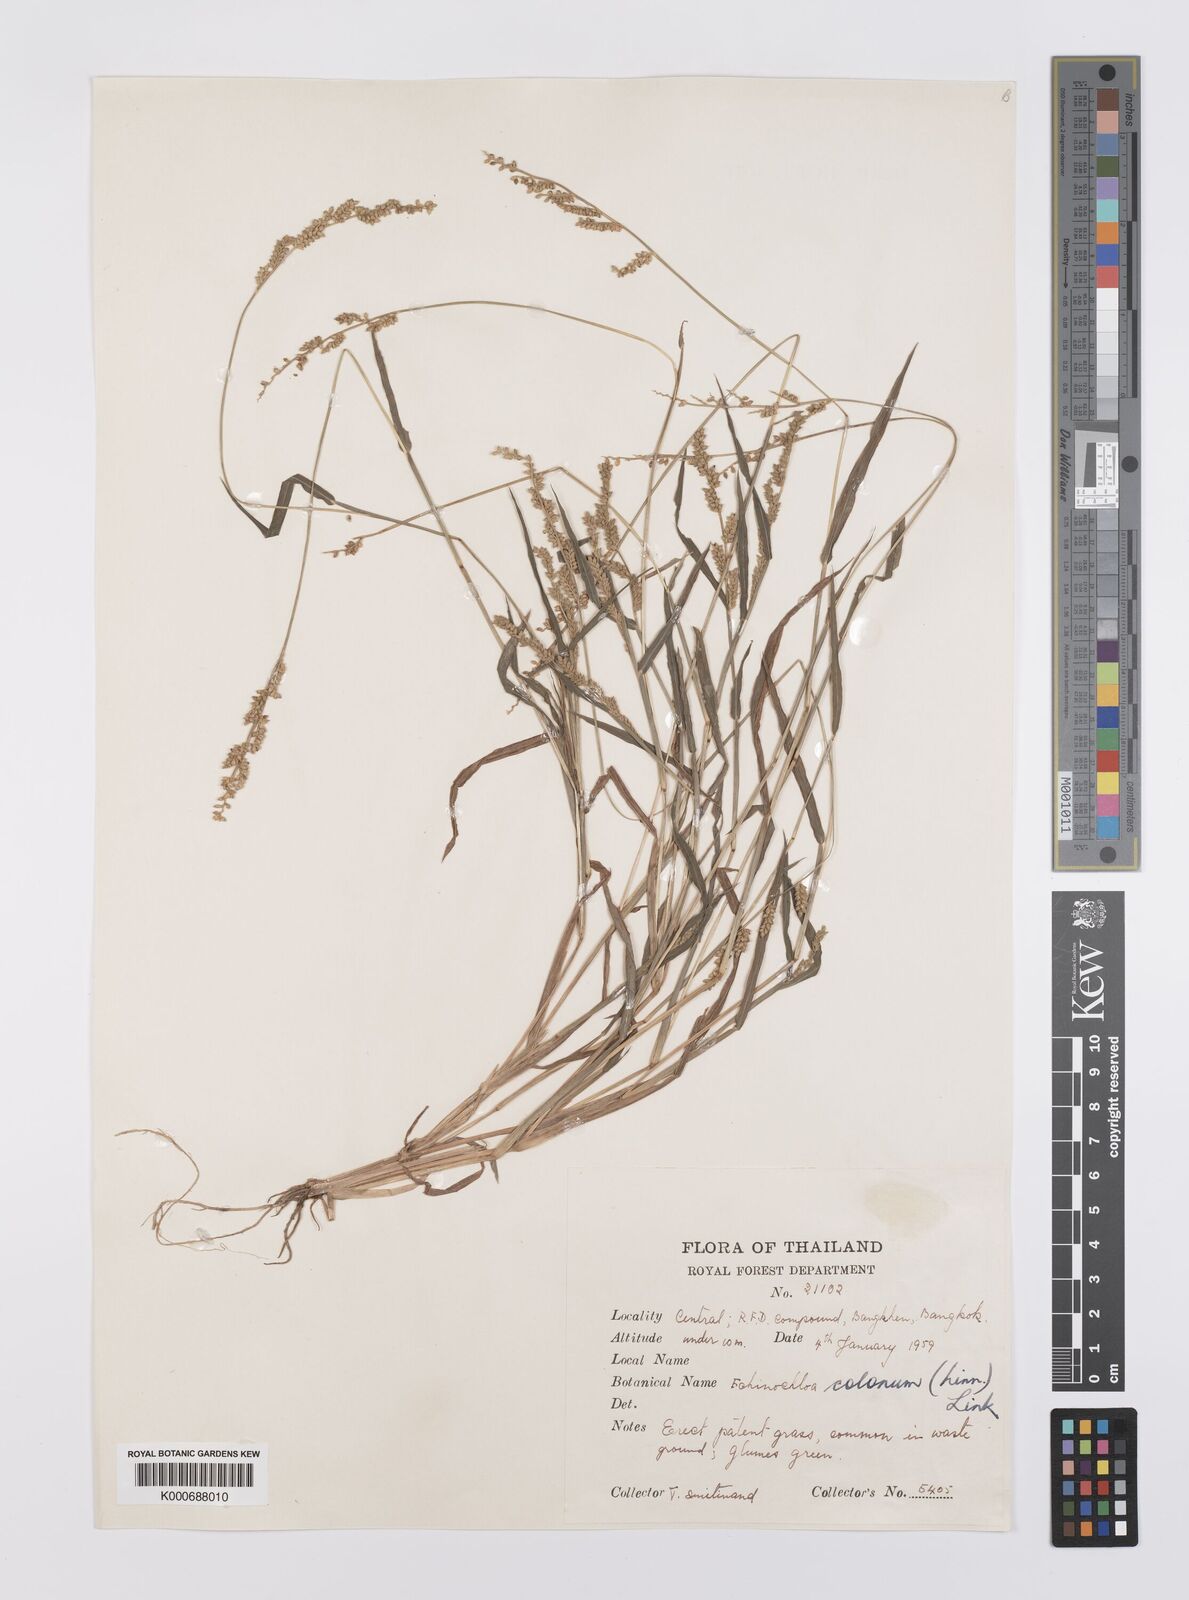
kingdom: Plantae
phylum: Tracheophyta
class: Liliopsida
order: Poales
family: Poaceae
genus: Echinochloa
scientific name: Echinochloa colonum
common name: Jungle rice
